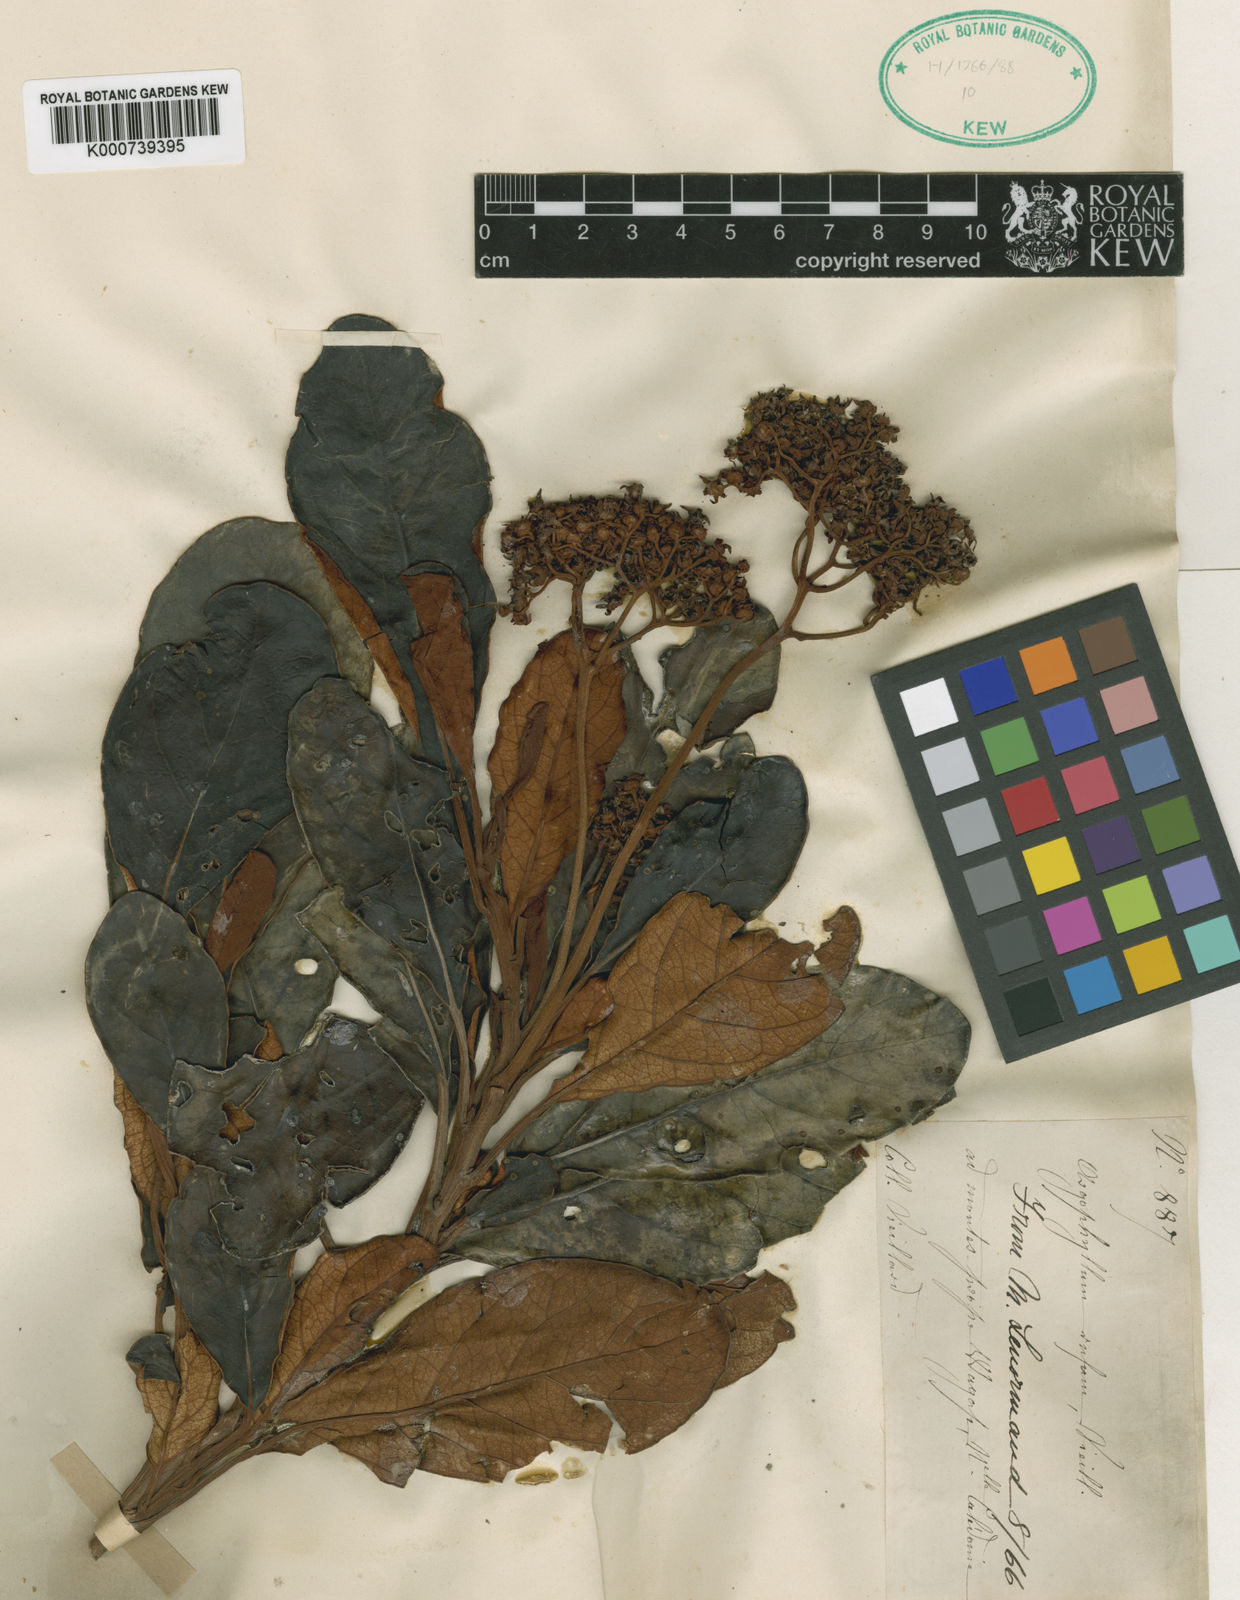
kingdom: Plantae
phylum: Tracheophyta
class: Magnoliopsida
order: Asterales
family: Argophyllaceae
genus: Argophyllum
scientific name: Argophyllum
